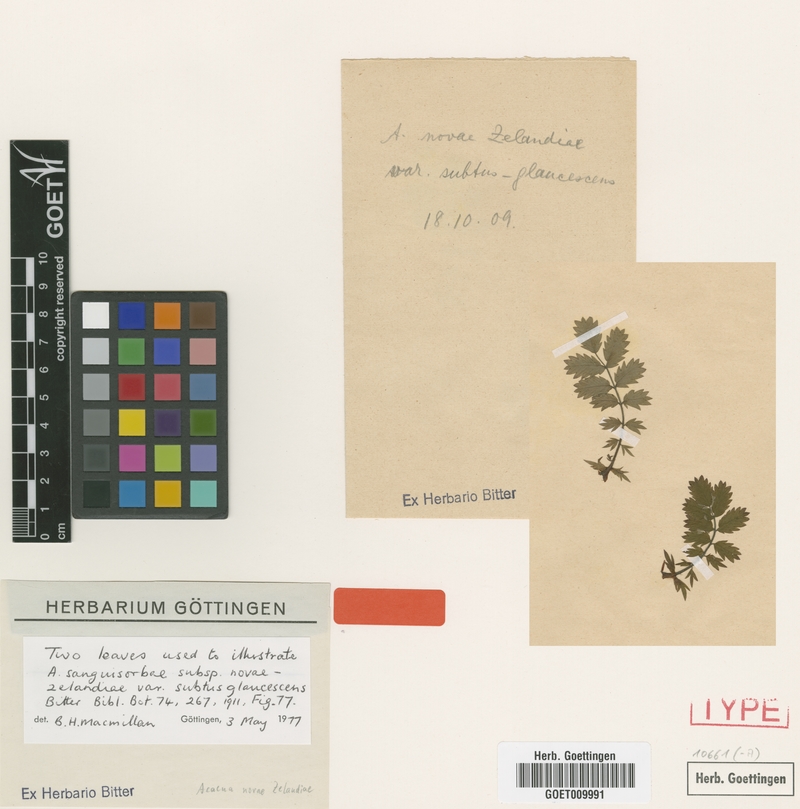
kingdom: Plantae
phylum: Tracheophyta
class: Magnoliopsida
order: Rosales
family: Rosaceae
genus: Acaena
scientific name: Acaena novae-zelandiae
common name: Pirri-pirri-bur
